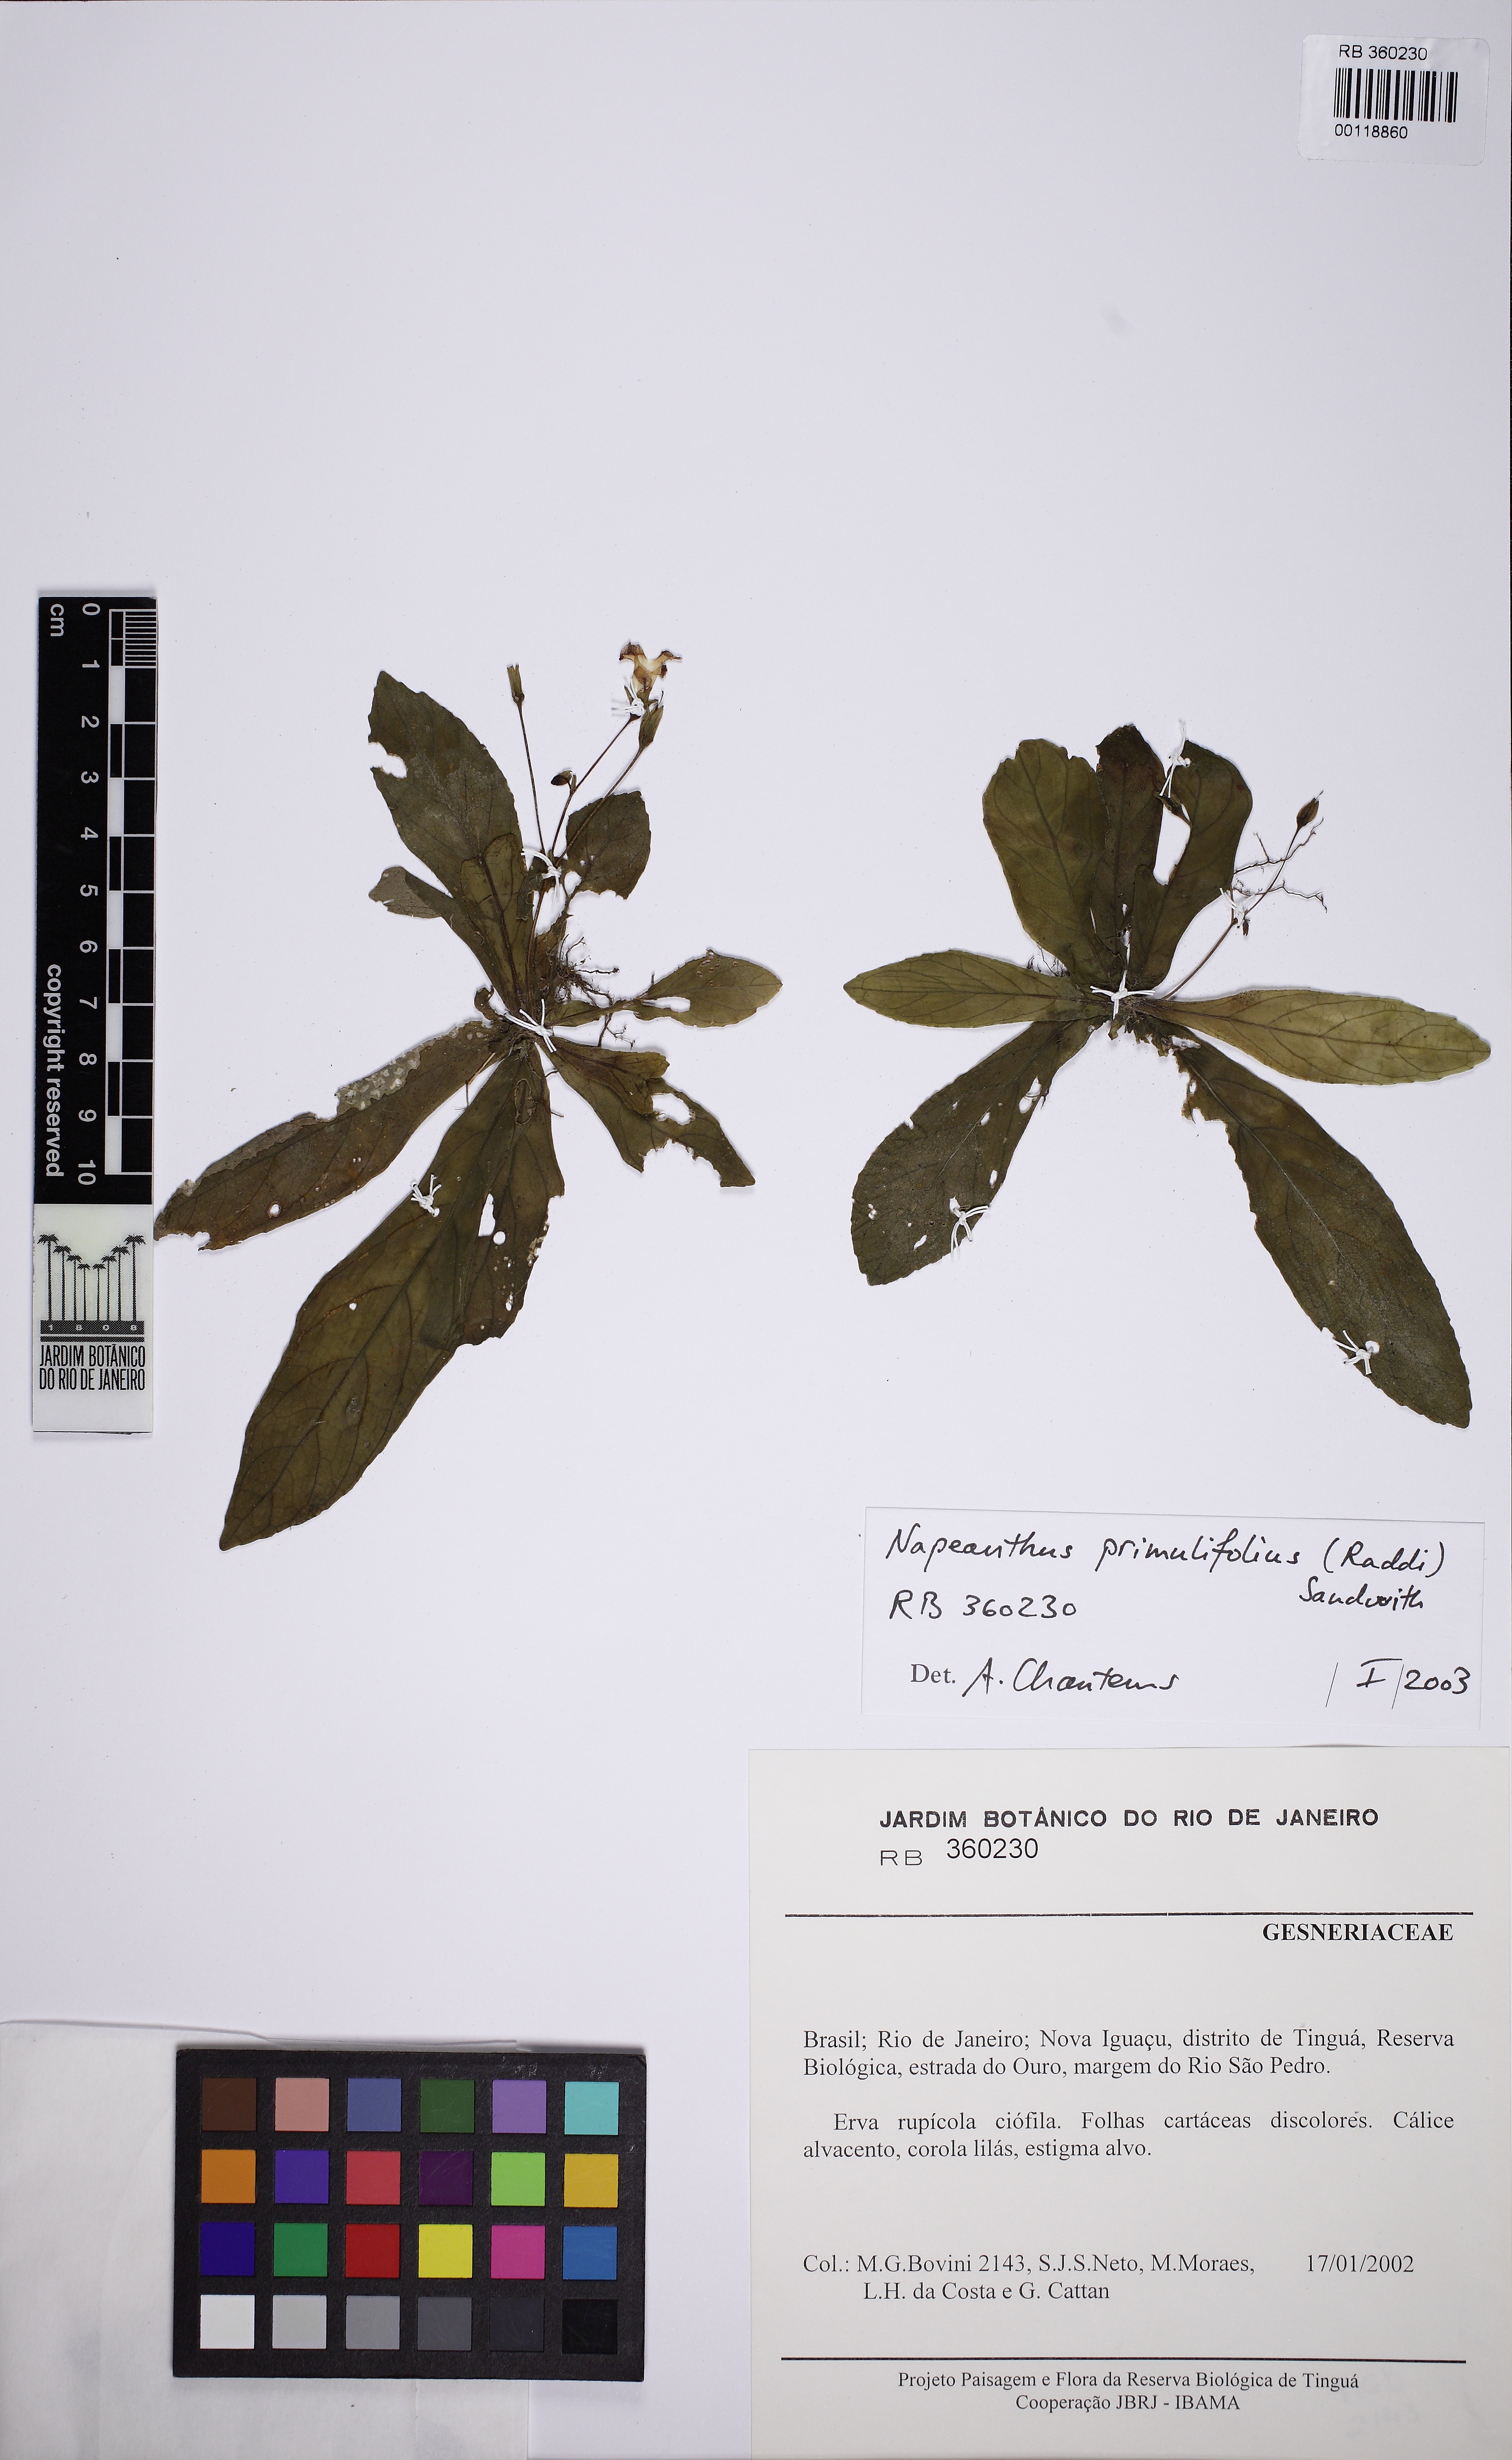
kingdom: Plantae
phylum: Tracheophyta
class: Magnoliopsida
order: Lamiales
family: Gesneriaceae
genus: Napeanthus
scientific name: Napeanthus primulifolius
